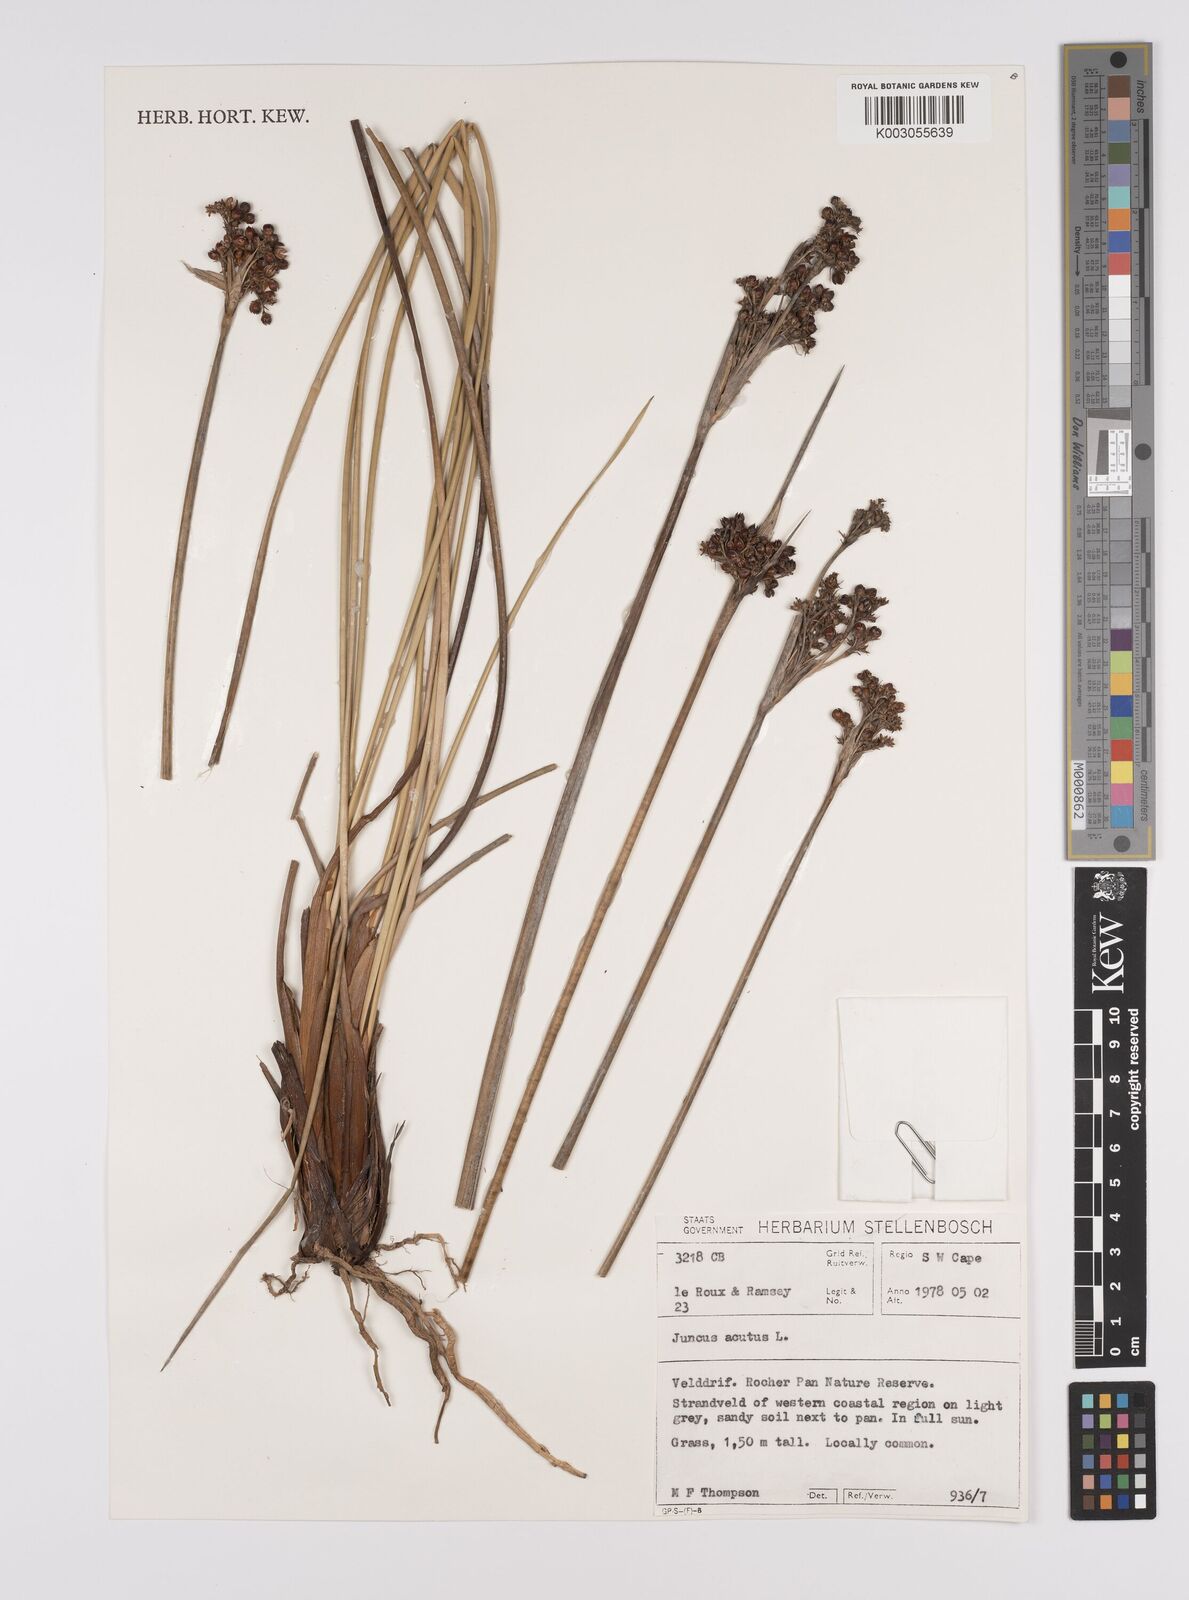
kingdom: Plantae
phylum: Tracheophyta
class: Liliopsida
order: Poales
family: Juncaceae
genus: Juncus
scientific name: Juncus acutus
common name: Sharp rush
